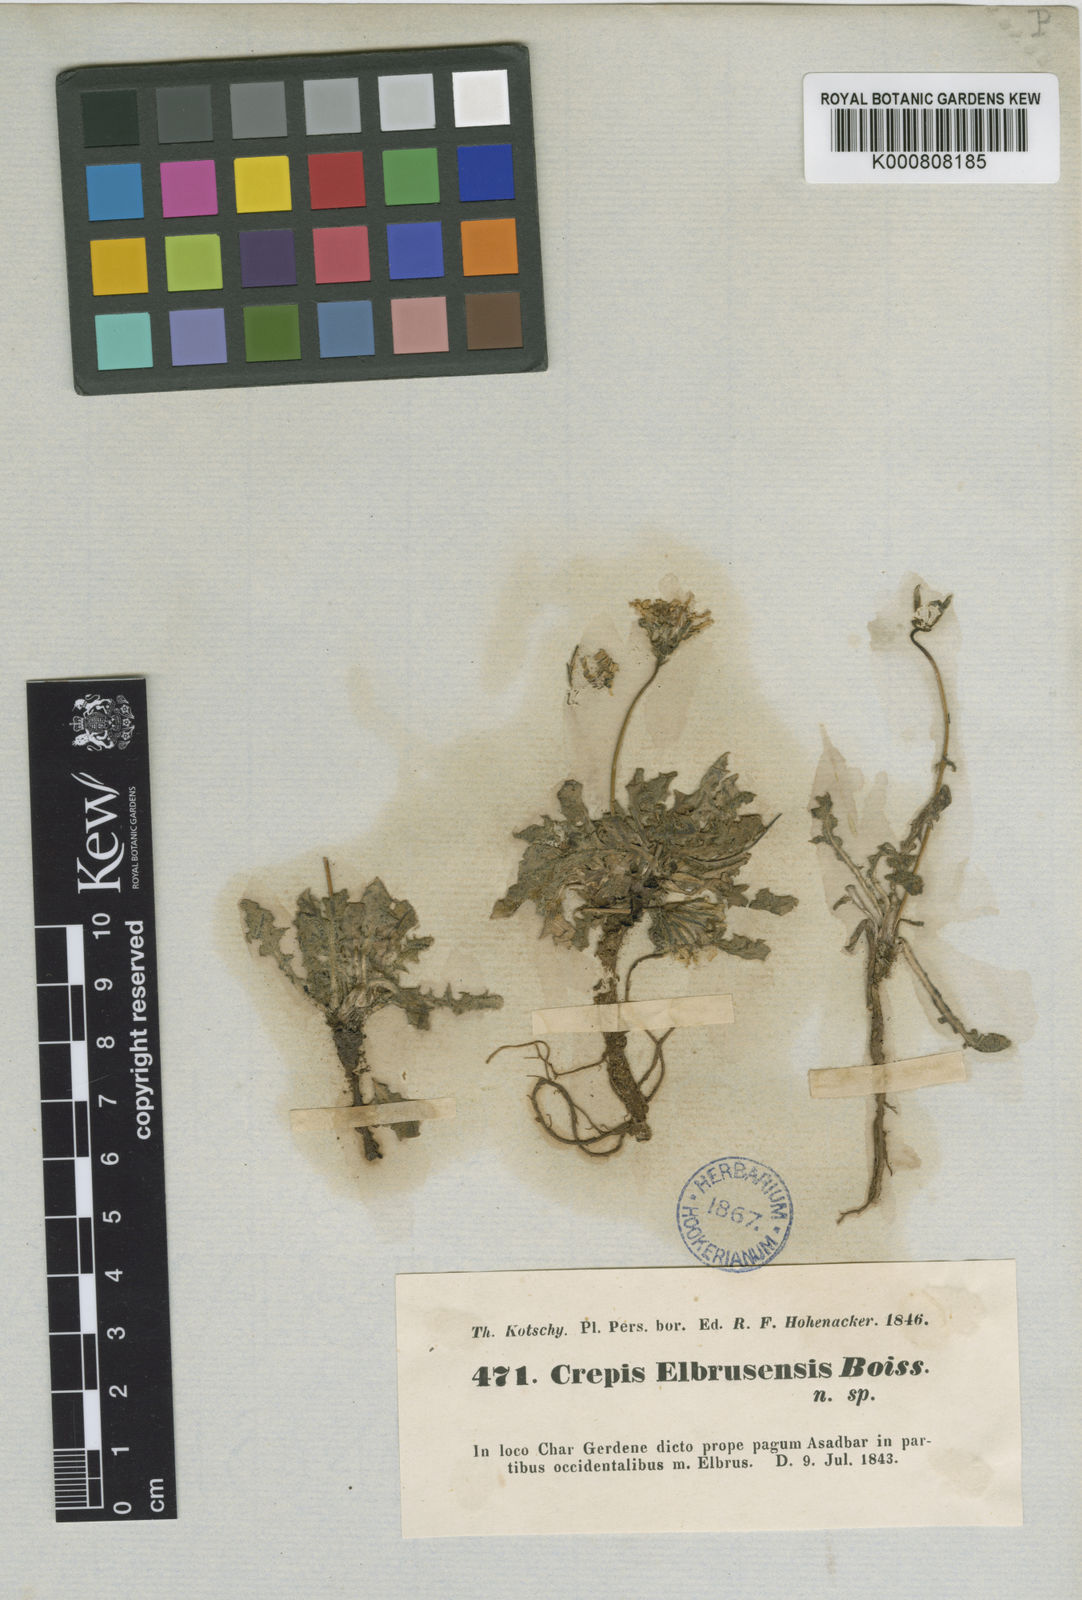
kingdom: Plantae
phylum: Tracheophyta
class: Magnoliopsida
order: Asterales
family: Asteraceae
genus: Crepis
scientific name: Crepis elbrusensis
